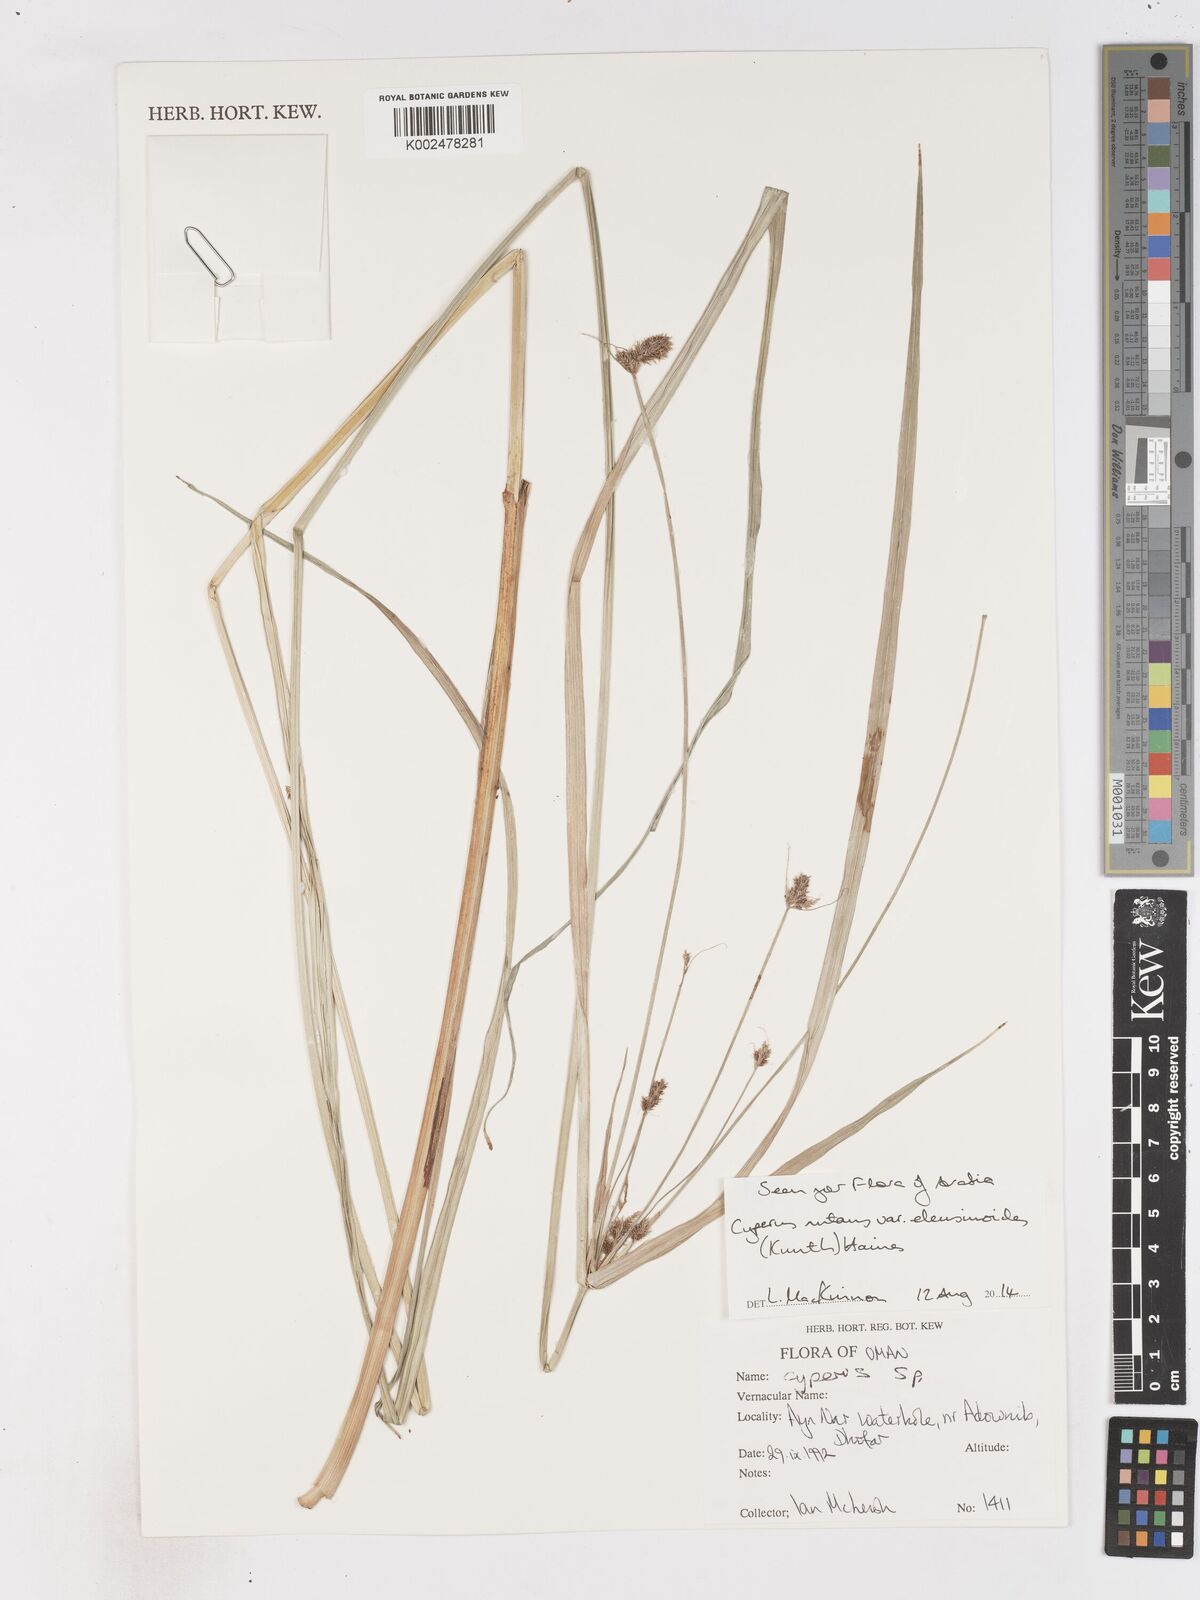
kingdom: Plantae
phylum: Tracheophyta
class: Liliopsida
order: Poales
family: Cyperaceae
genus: Cyperus
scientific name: Cyperus nutans
